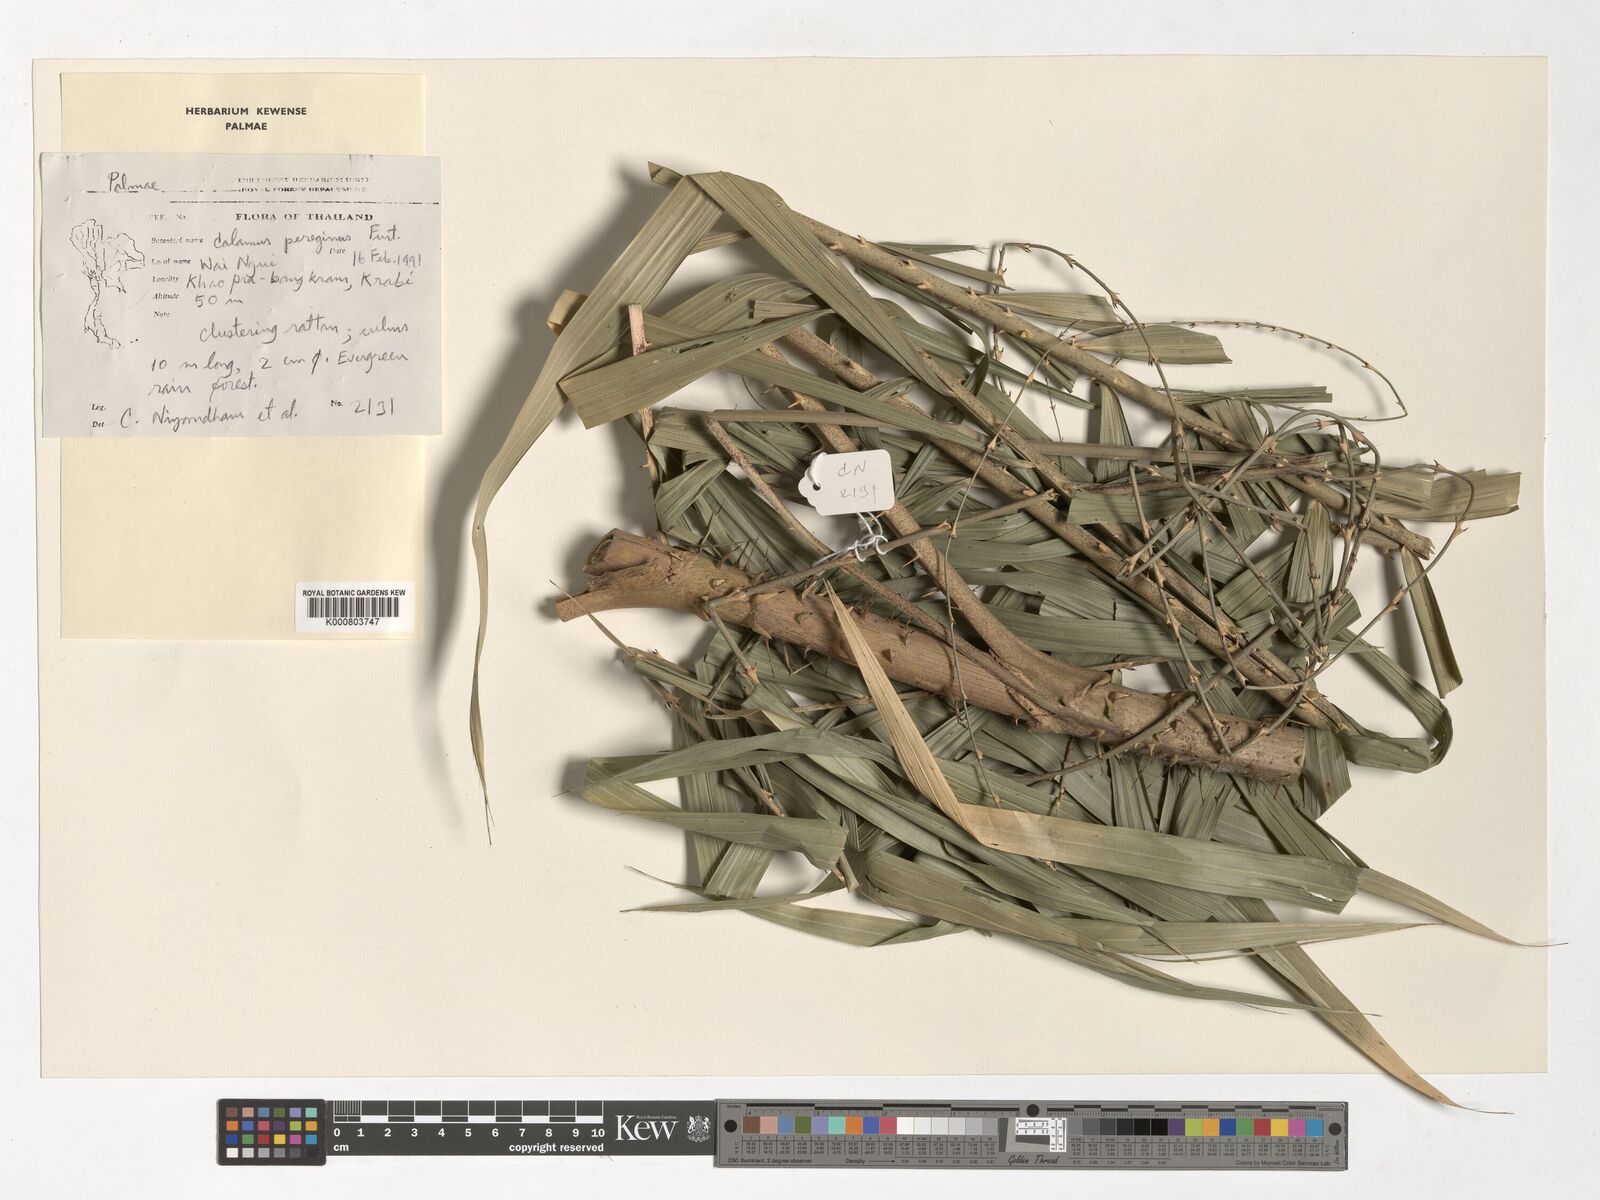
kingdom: Plantae
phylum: Tracheophyta
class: Liliopsida
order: Arecales
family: Arecaceae
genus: Calamus
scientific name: Calamus peregrinus
